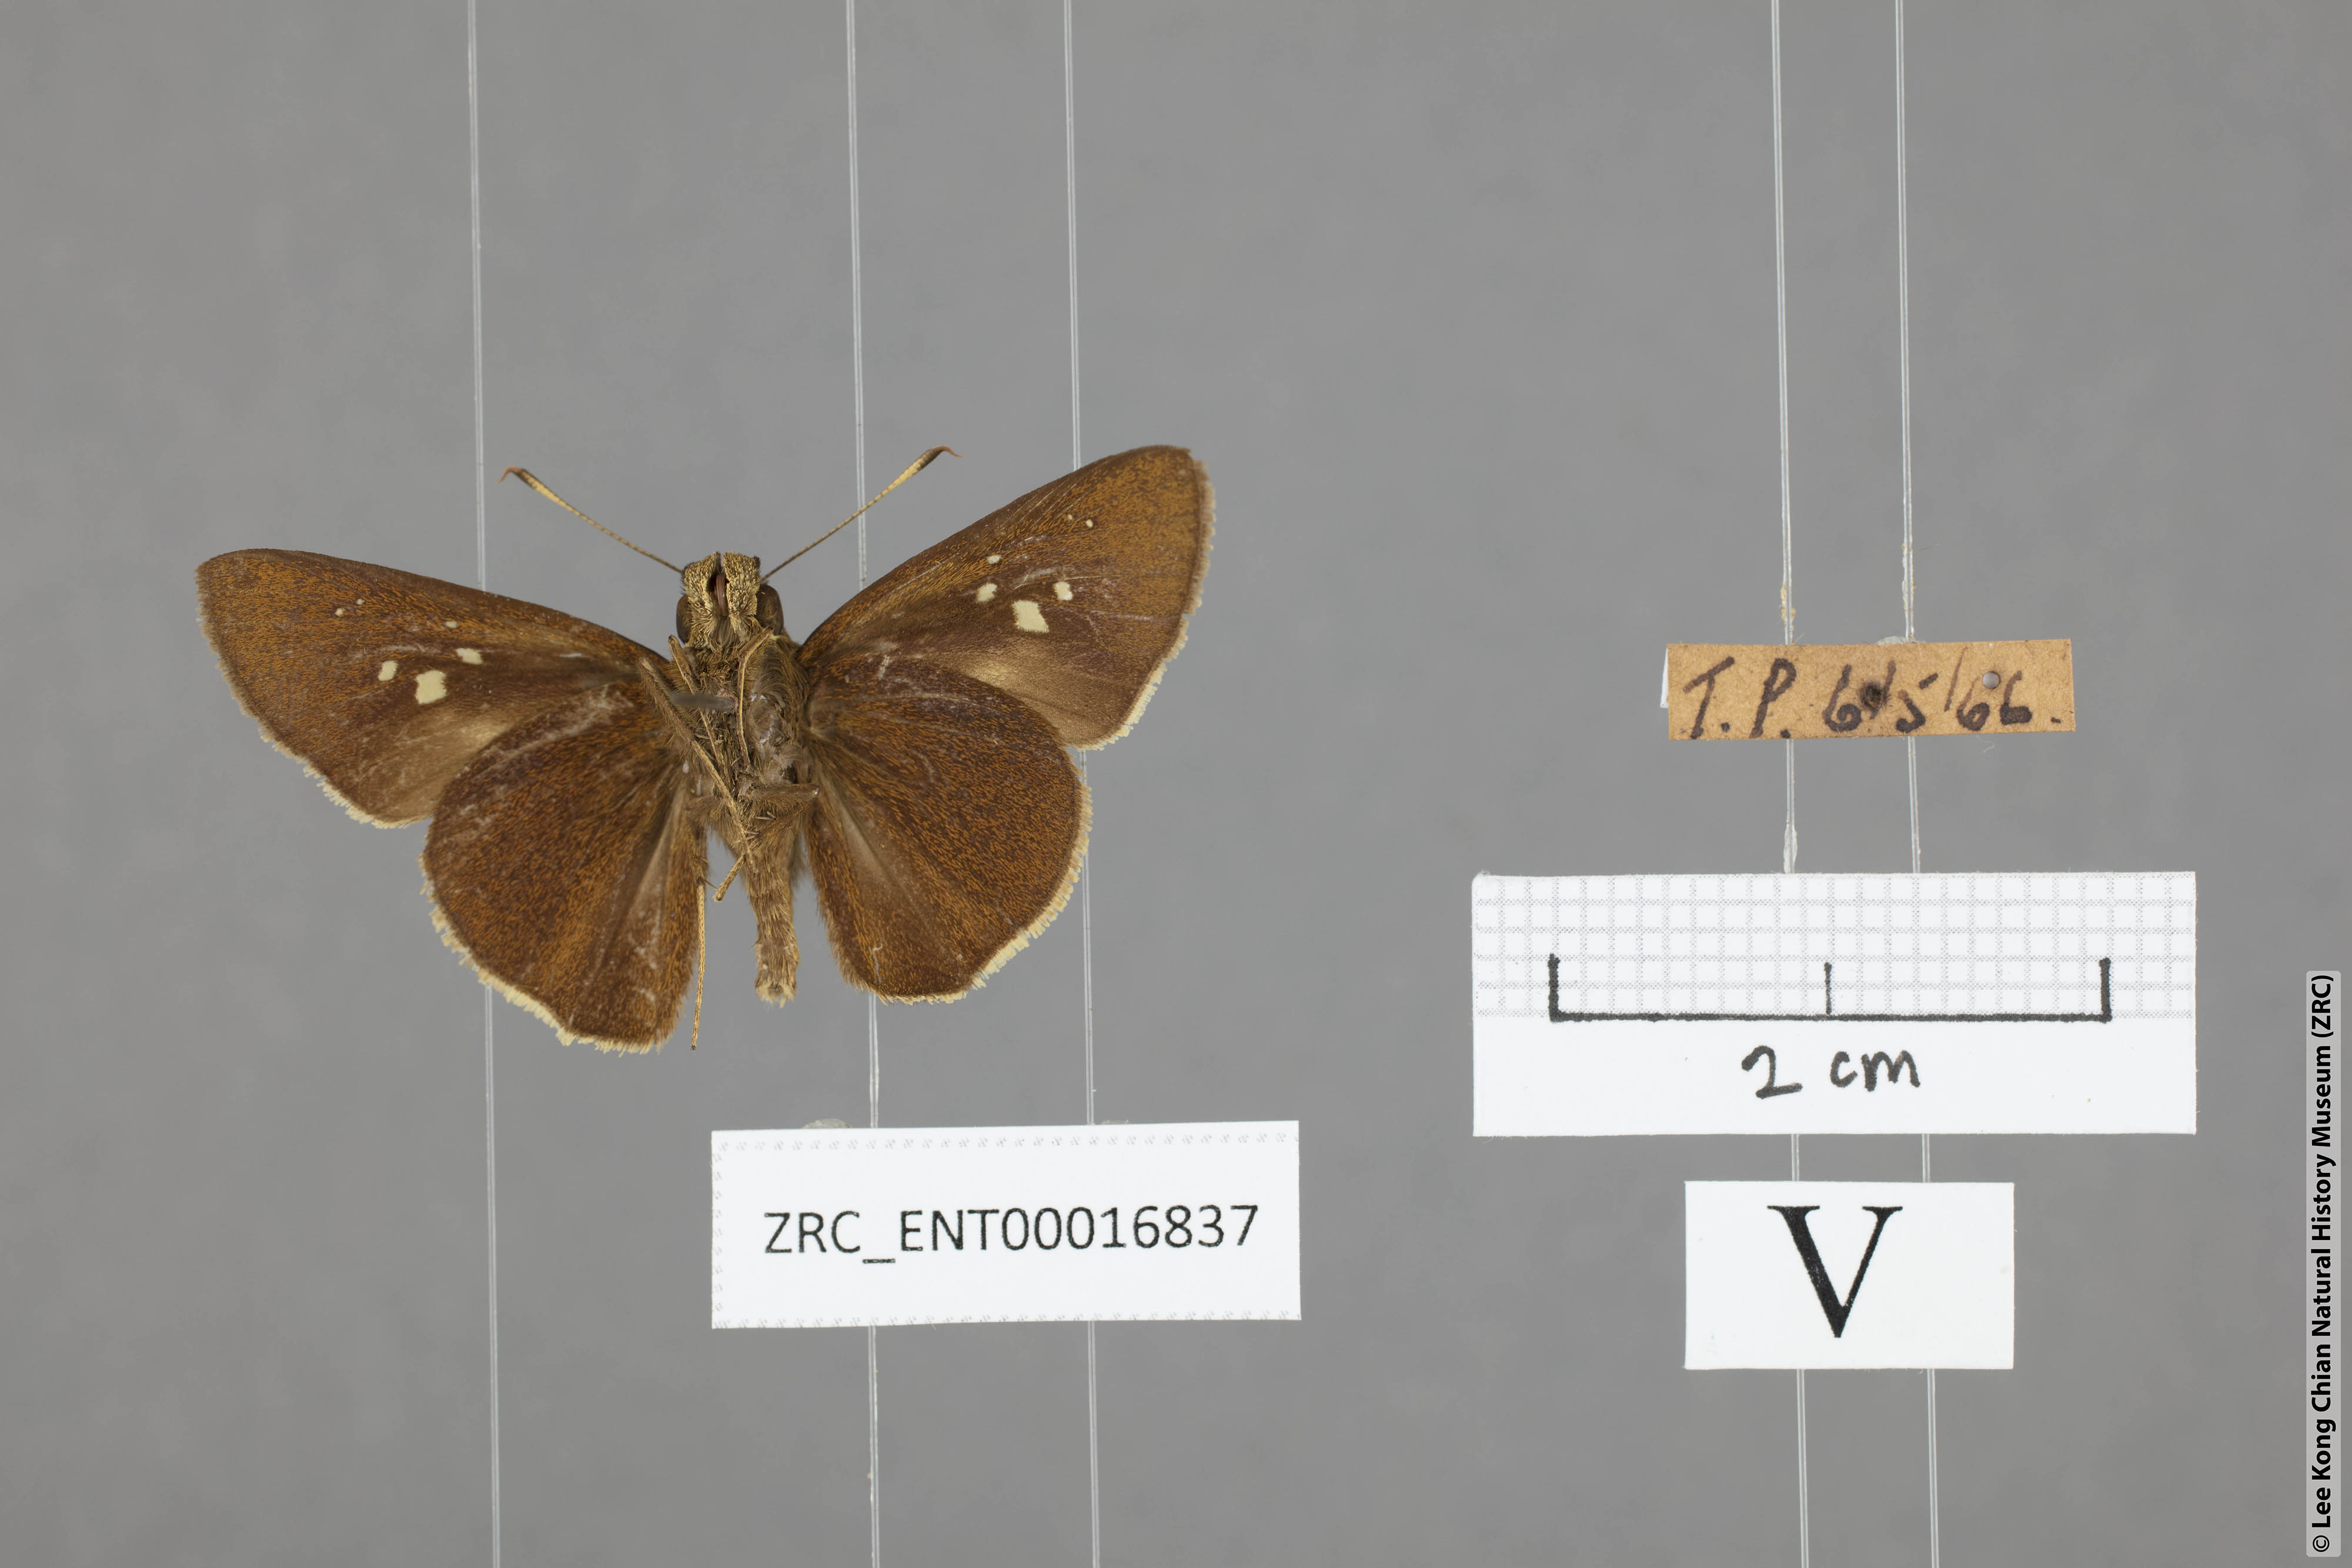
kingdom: Animalia
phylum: Arthropoda
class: Insecta
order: Lepidoptera
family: Hesperiidae
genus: Caltoris
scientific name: Caltoris cormasa
